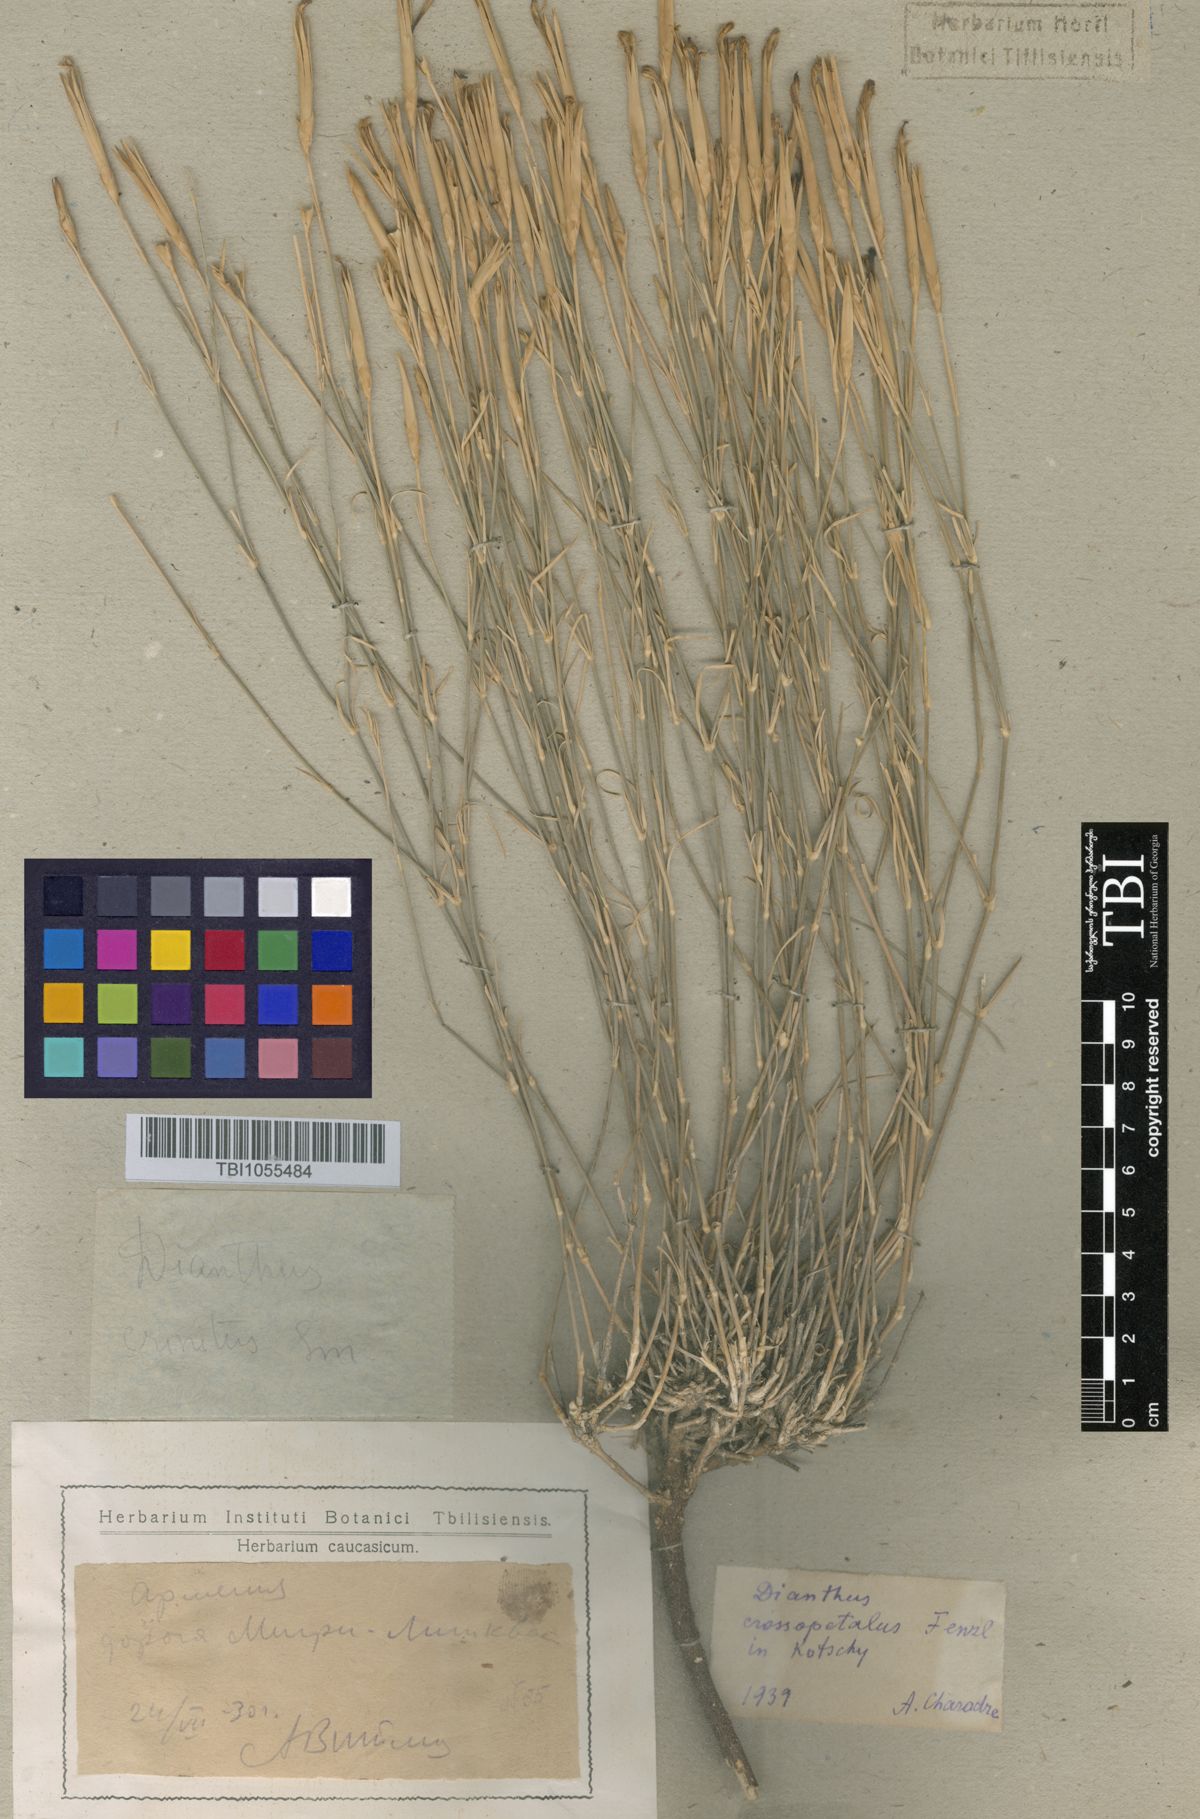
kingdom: Plantae
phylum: Tracheophyta
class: Magnoliopsida
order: Caryophyllales
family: Caryophyllaceae
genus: Dianthus
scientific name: Dianthus crossopetalus
